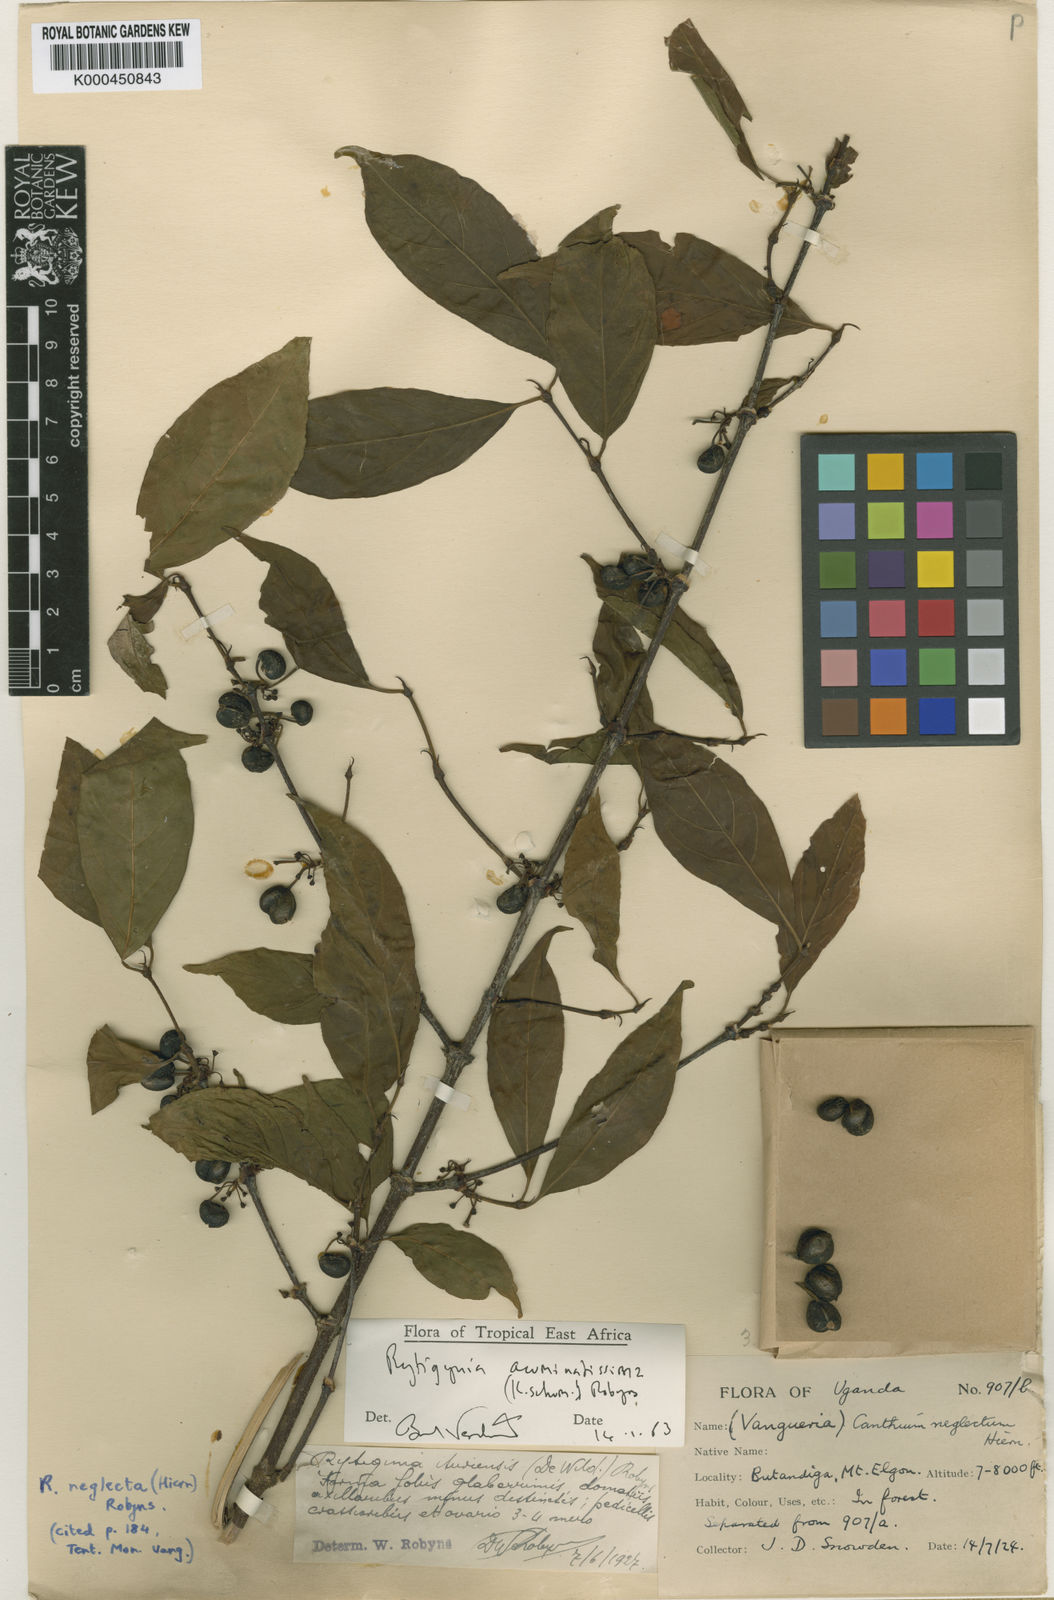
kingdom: Plantae
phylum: Tracheophyta
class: Magnoliopsida
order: Gentianales
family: Rubiaceae
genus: Rytigynia
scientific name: Rytigynia acuminatissima
